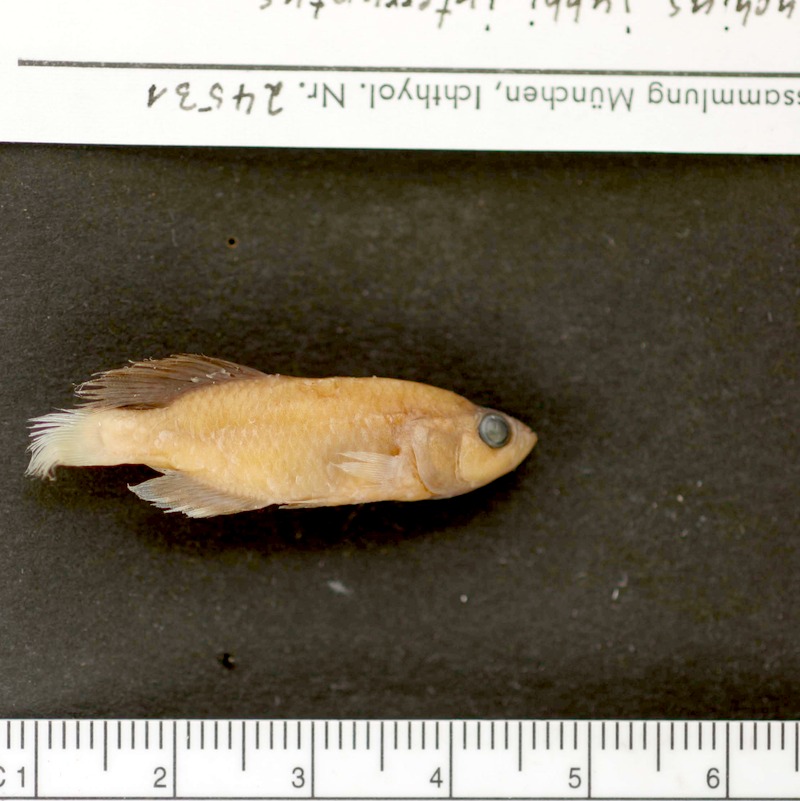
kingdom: Animalia
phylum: Chordata
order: Cyprinodontiformes
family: Nothobranchiidae
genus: Nothobranchius
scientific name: Nothobranchius interruptus
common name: Kikambala nothobranch
